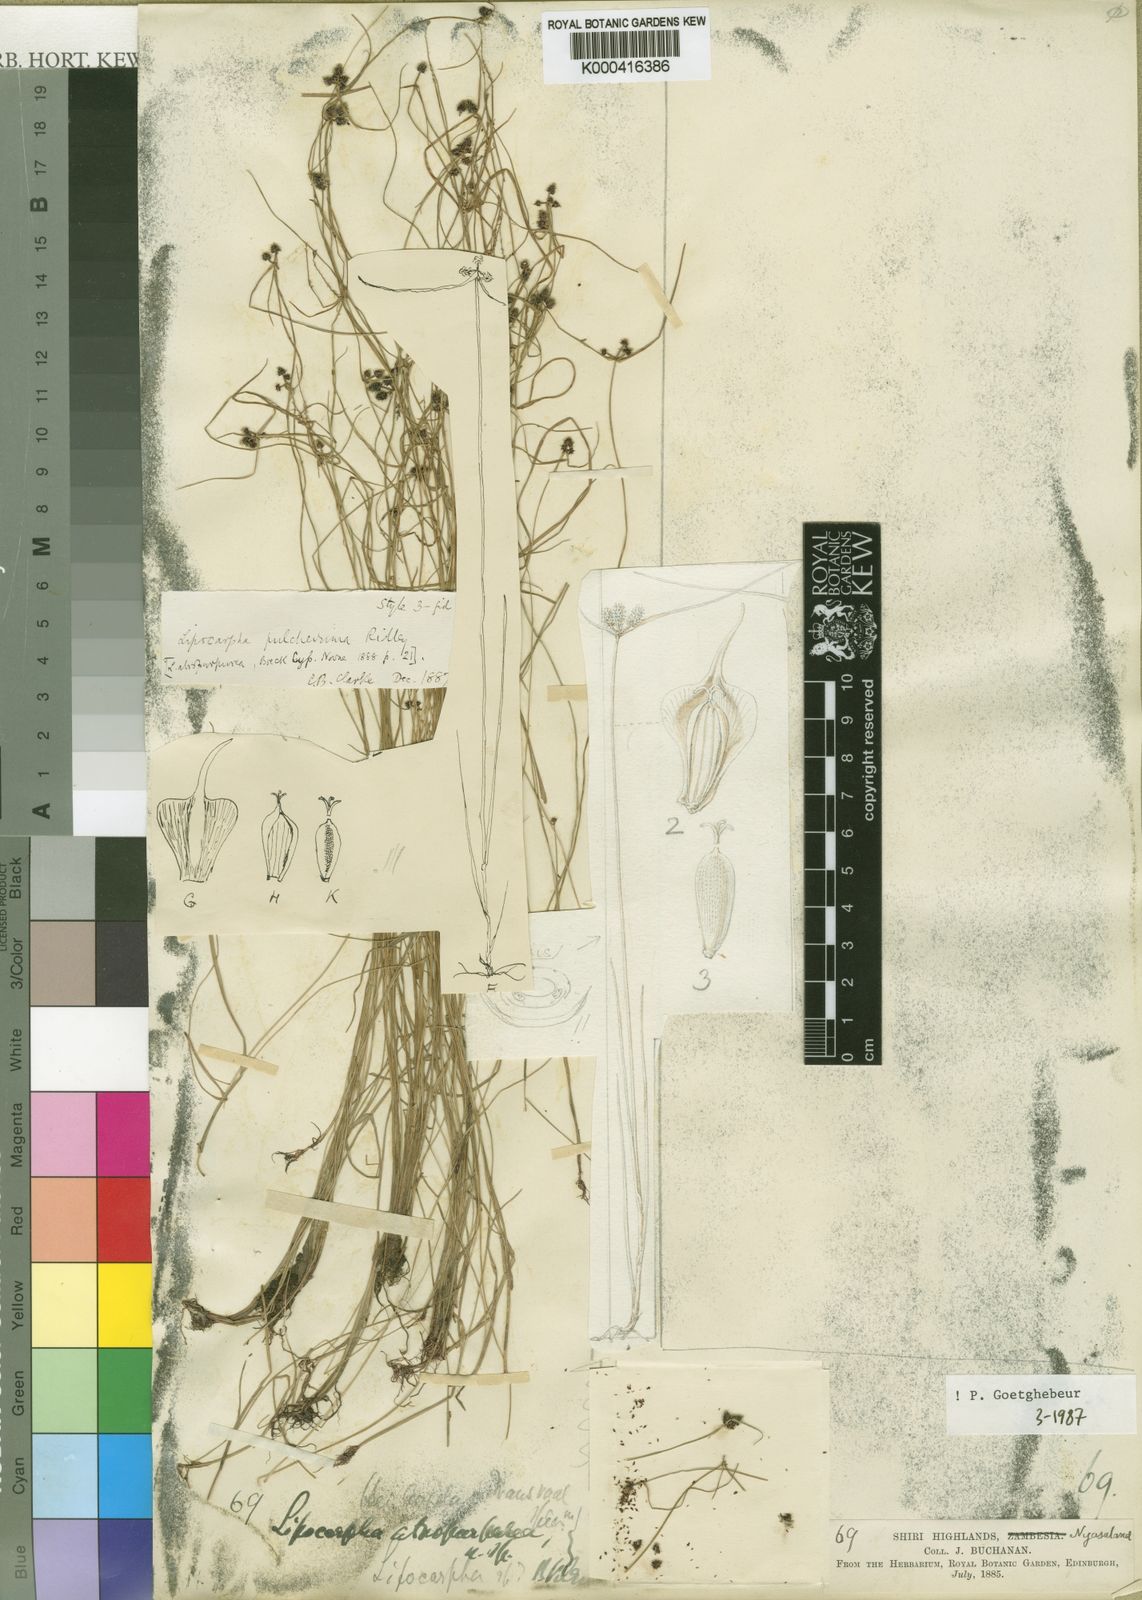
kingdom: Plantae
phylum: Tracheophyta
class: Liliopsida
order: Poales
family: Cyperaceae
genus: Cyperus
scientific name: Cyperus persquarrosus
